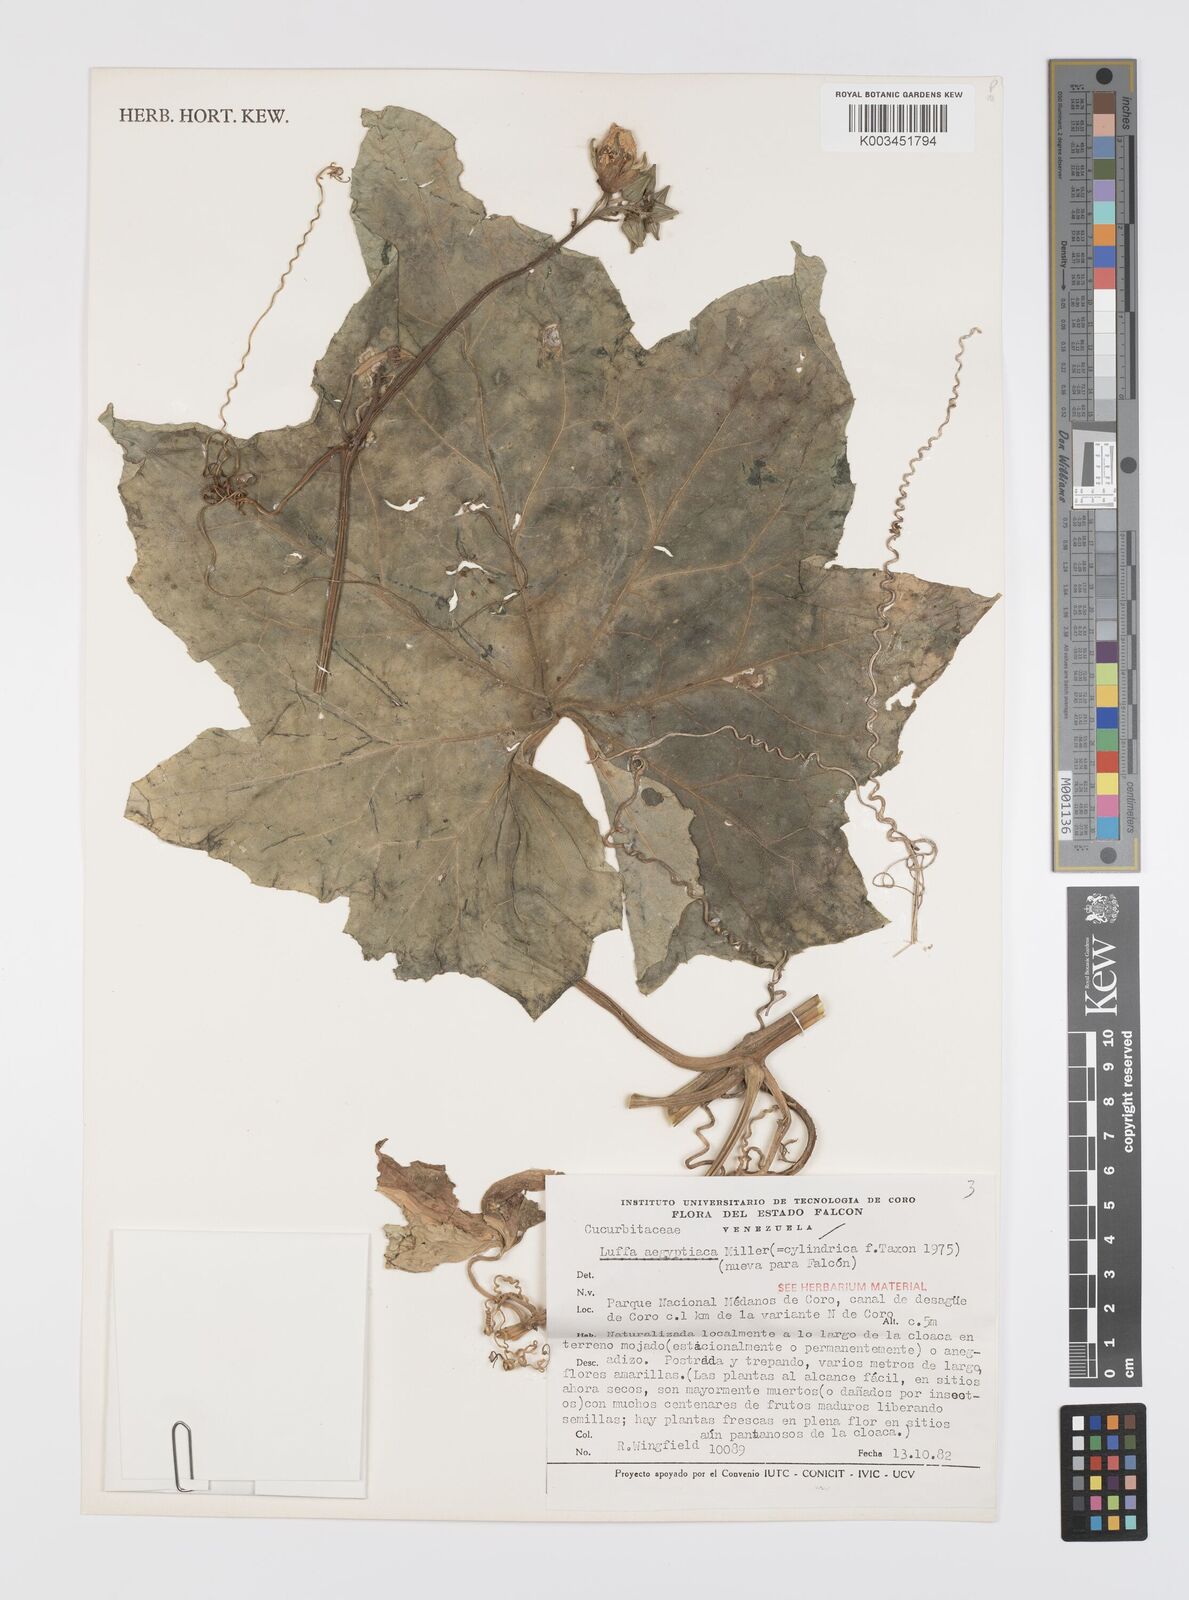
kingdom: Plantae
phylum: Tracheophyta
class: Magnoliopsida
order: Cucurbitales
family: Cucurbitaceae
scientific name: Cucurbitaceae
